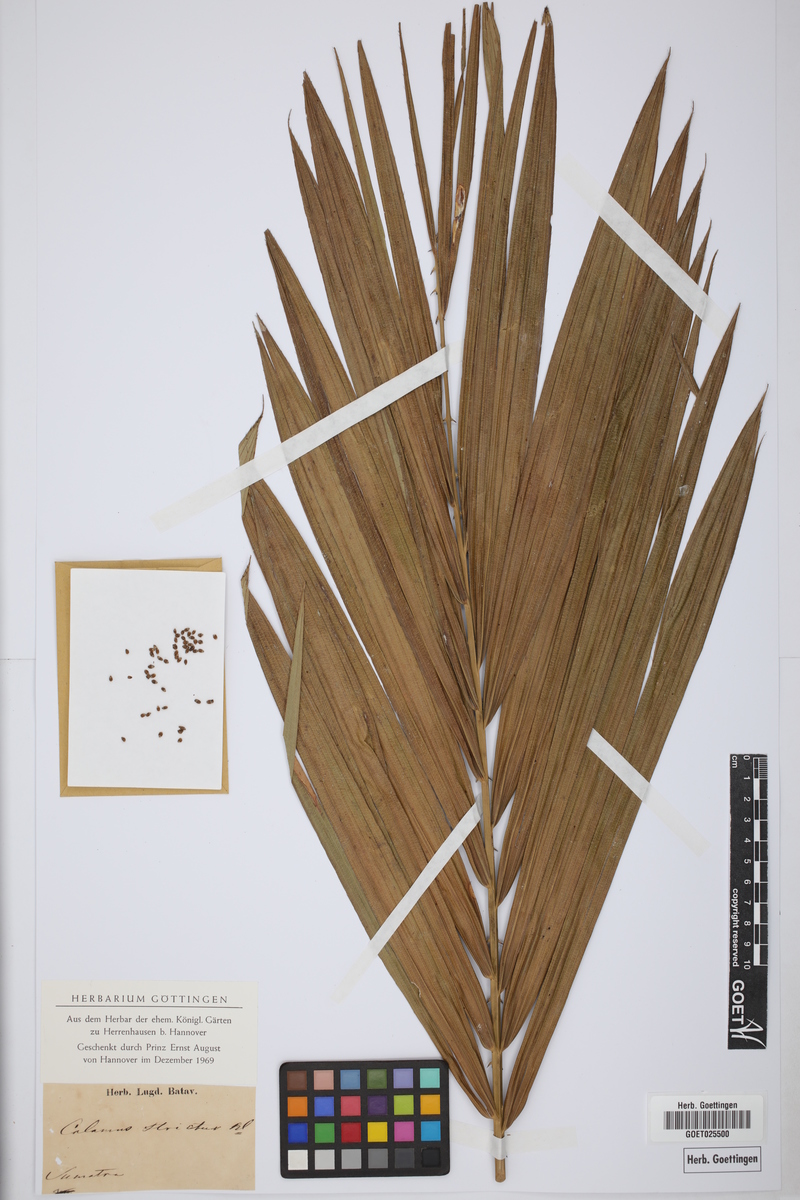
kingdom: Plantae
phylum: Tracheophyta
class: Liliopsida
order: Arecales
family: Arecaceae
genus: Calamus
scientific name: Calamus longipes
